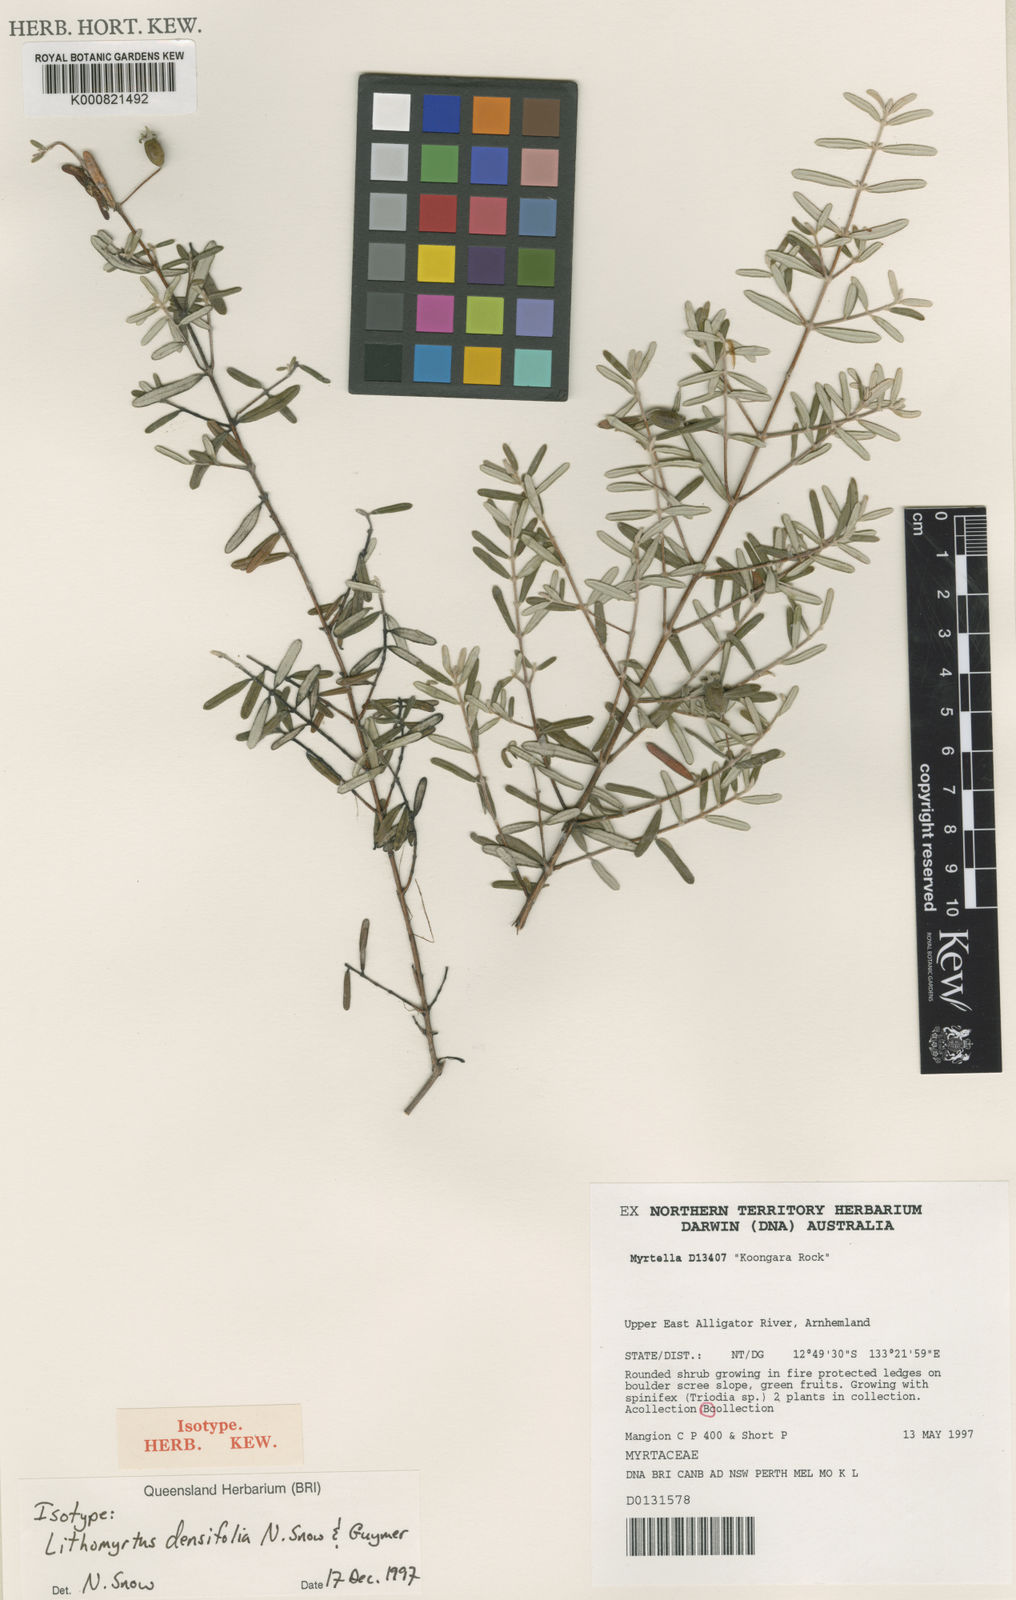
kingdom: Plantae
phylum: Tracheophyta
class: Magnoliopsida
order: Myrtales
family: Myrtaceae
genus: Lithomyrtus
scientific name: Lithomyrtus densifolia
